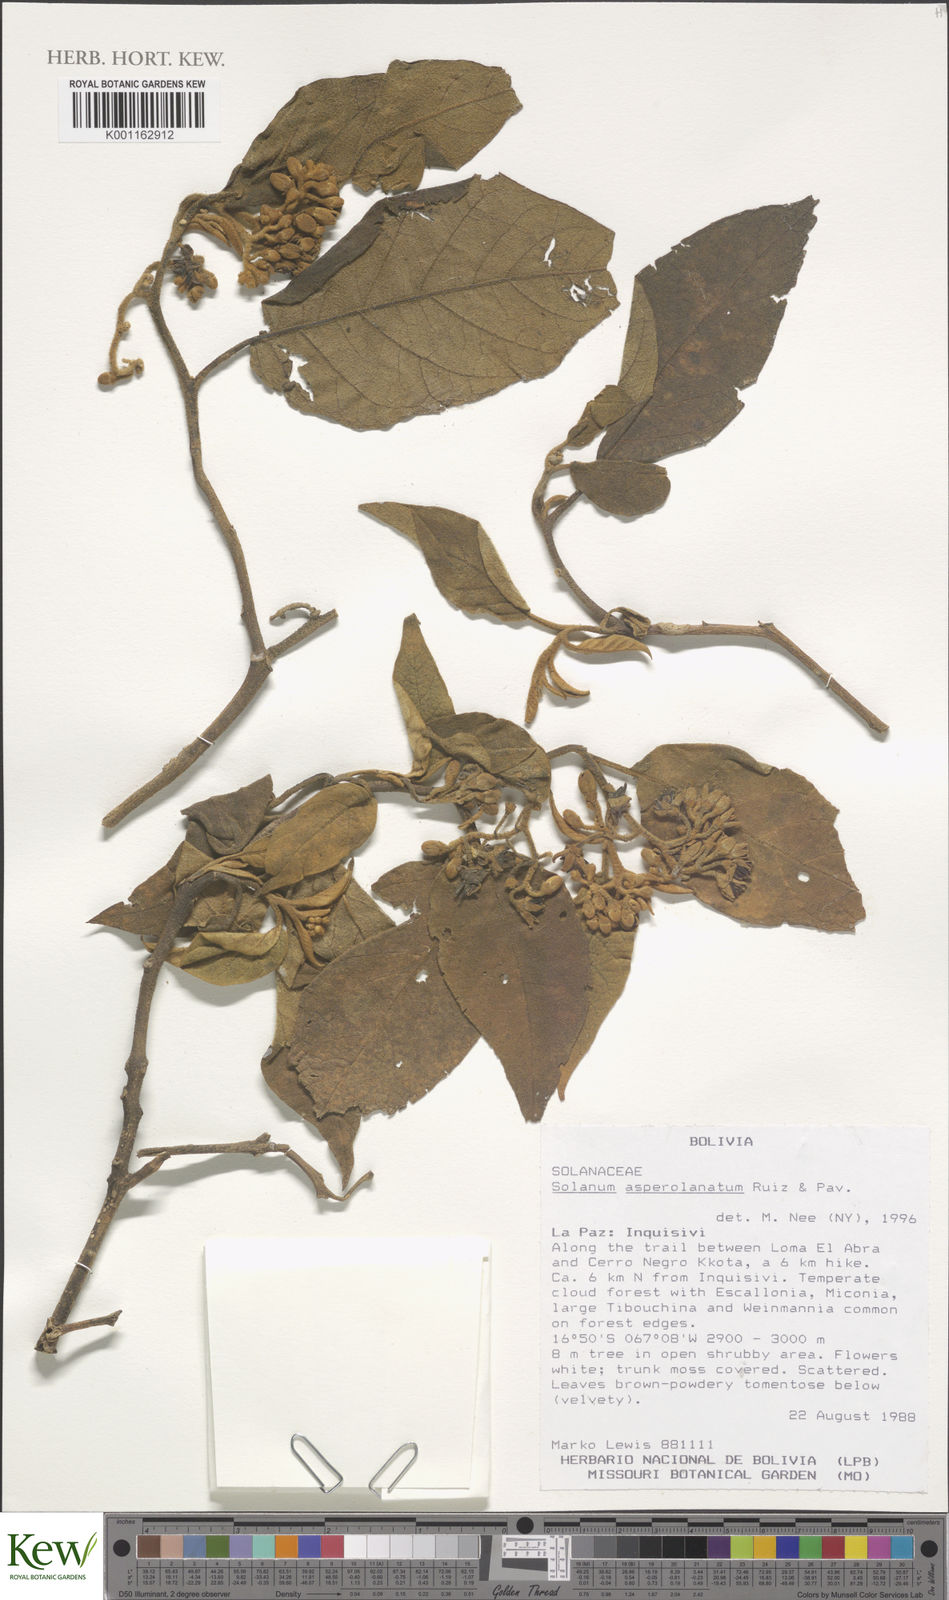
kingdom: Plantae
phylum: Tracheophyta
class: Magnoliopsida
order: Solanales
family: Solanaceae
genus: Solanum
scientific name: Solanum asperolanatum
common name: Devil's-fig
